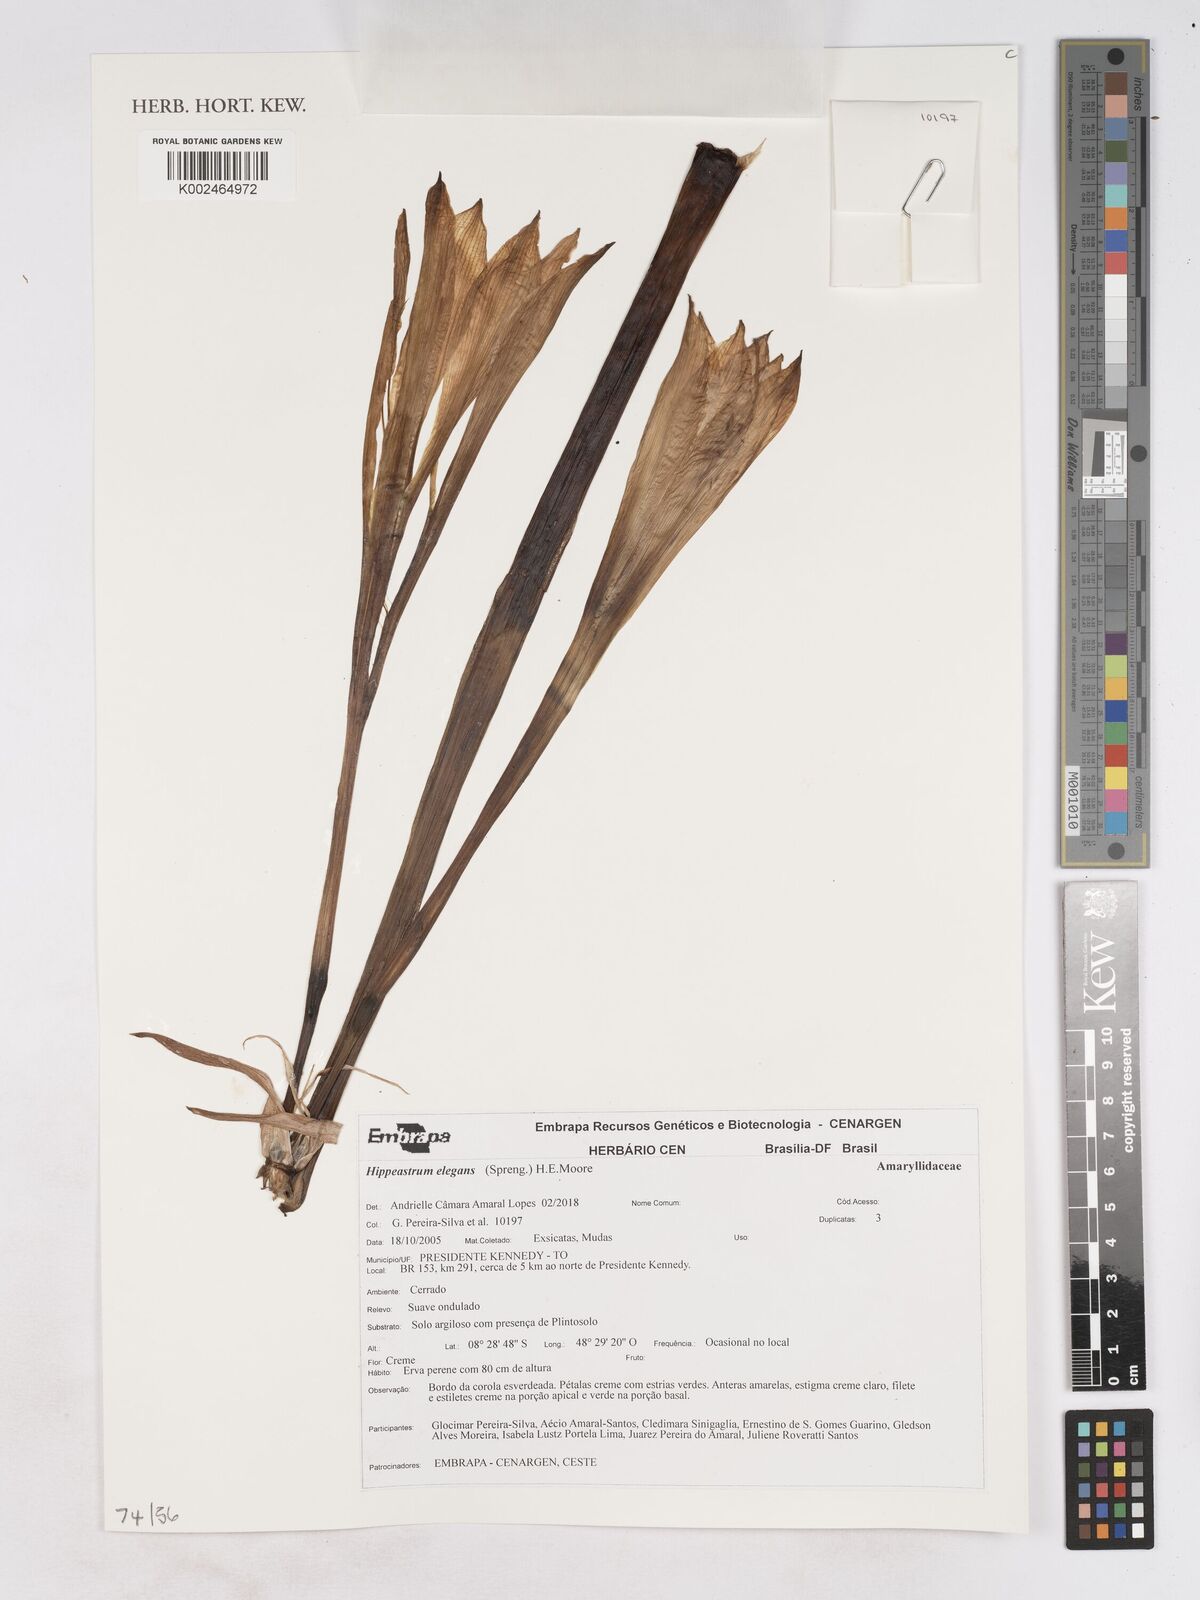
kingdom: Plantae
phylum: Tracheophyta
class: Liliopsida
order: Asparagales
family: Amaryllidaceae
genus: Hippeastrum
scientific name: Hippeastrum elegans
